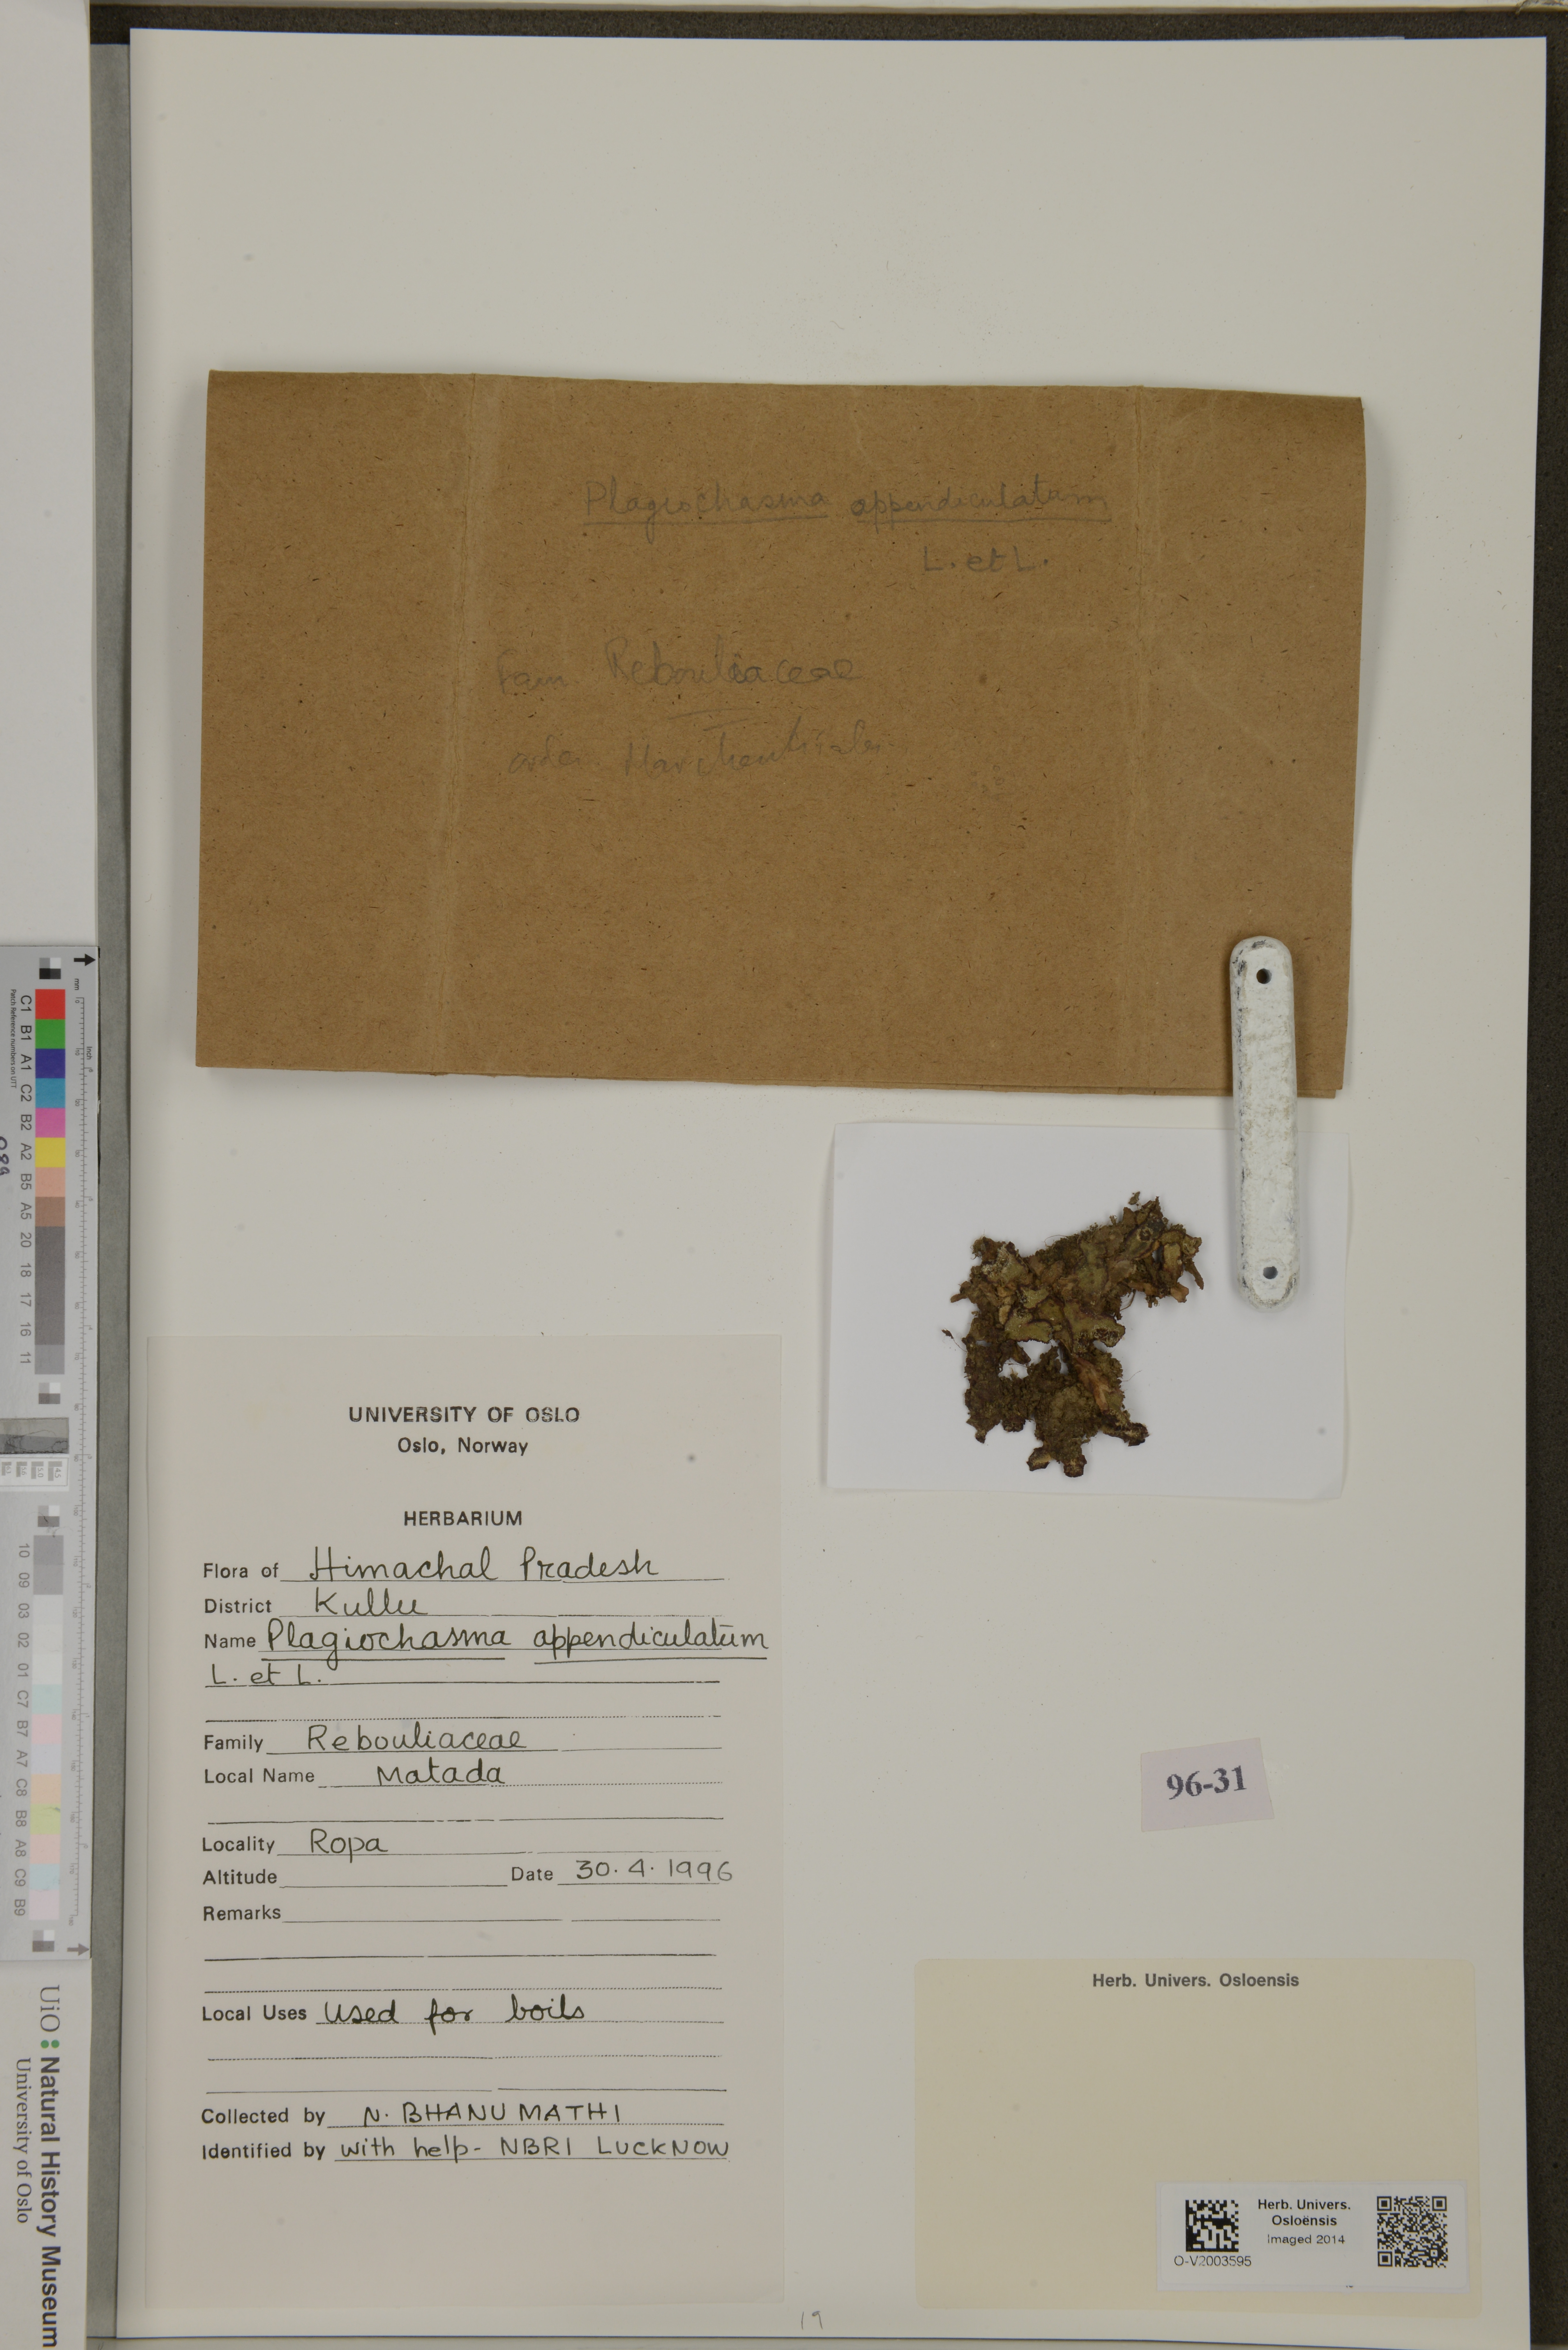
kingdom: Plantae
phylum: Marchantiophyta
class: Marchantiopsida
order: Marchantiales
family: Aytoniaceae
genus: Plagiochasma
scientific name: Plagiochasma appendiculatum
